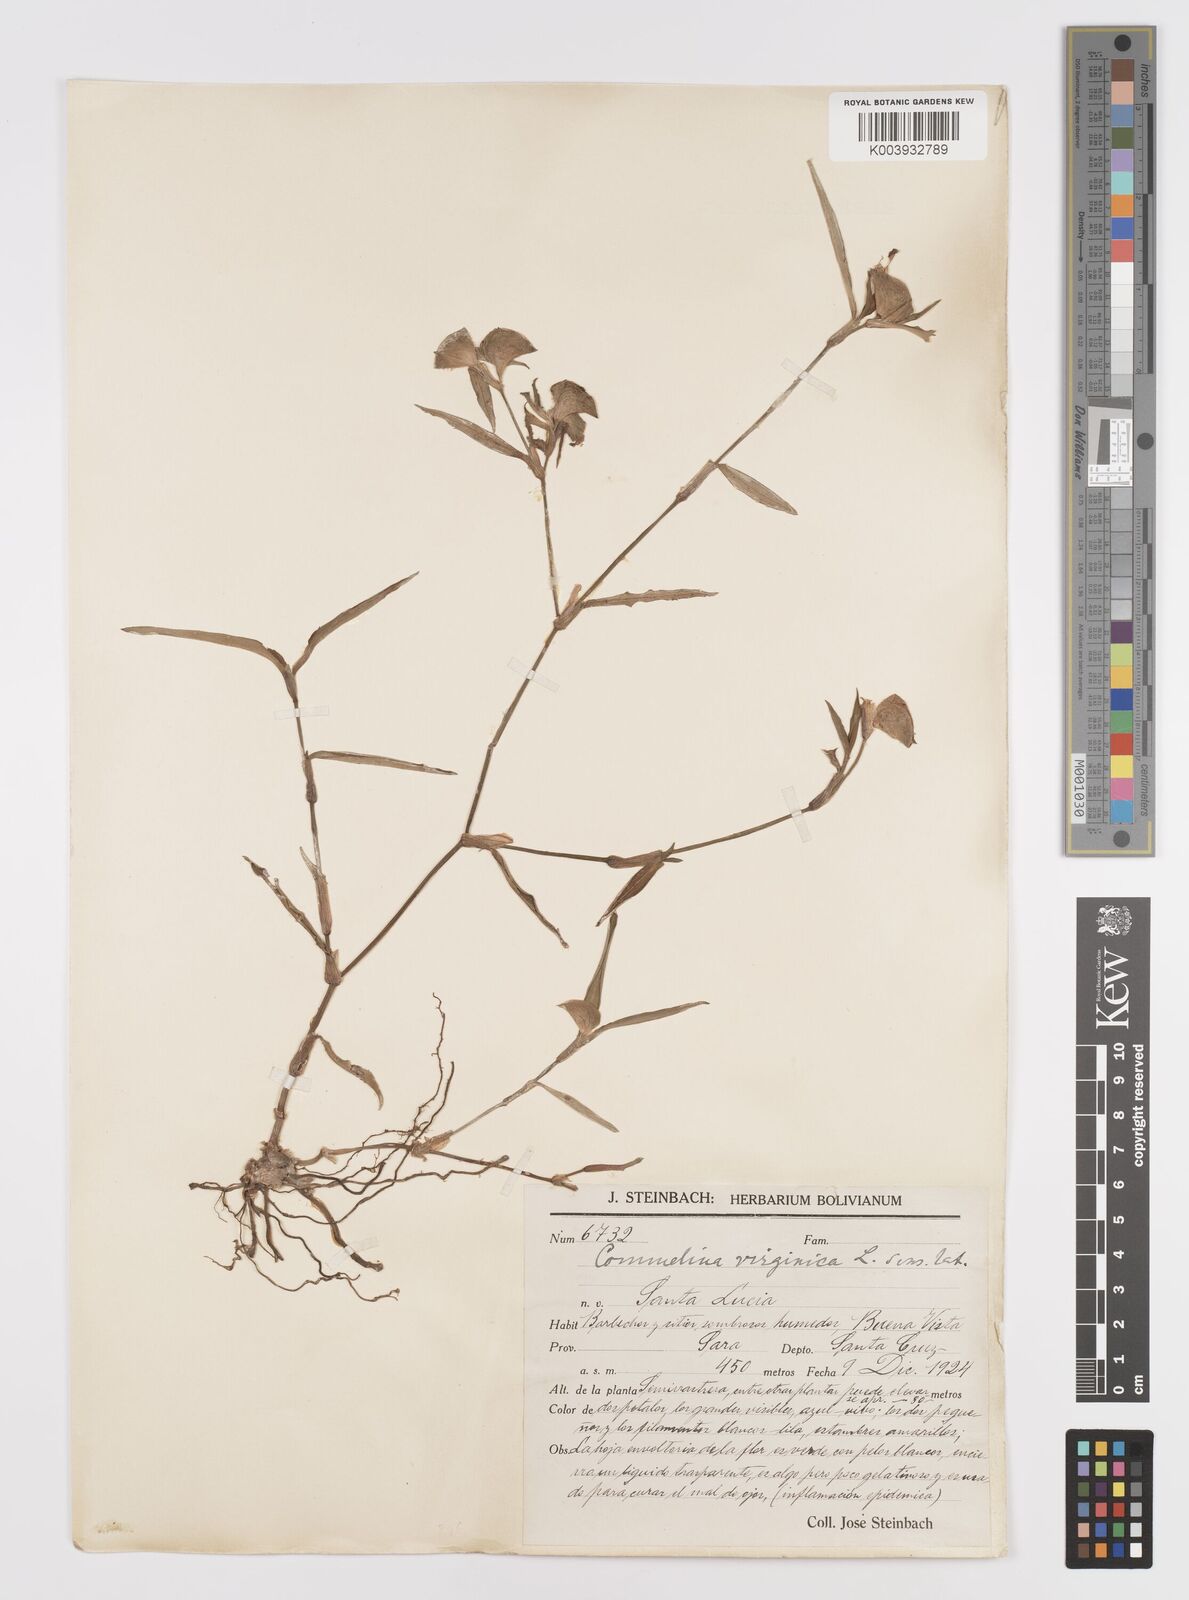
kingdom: Plantae
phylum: Tracheophyta
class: Liliopsida
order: Commelinales
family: Commelinaceae
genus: Commelina
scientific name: Commelina virginica
